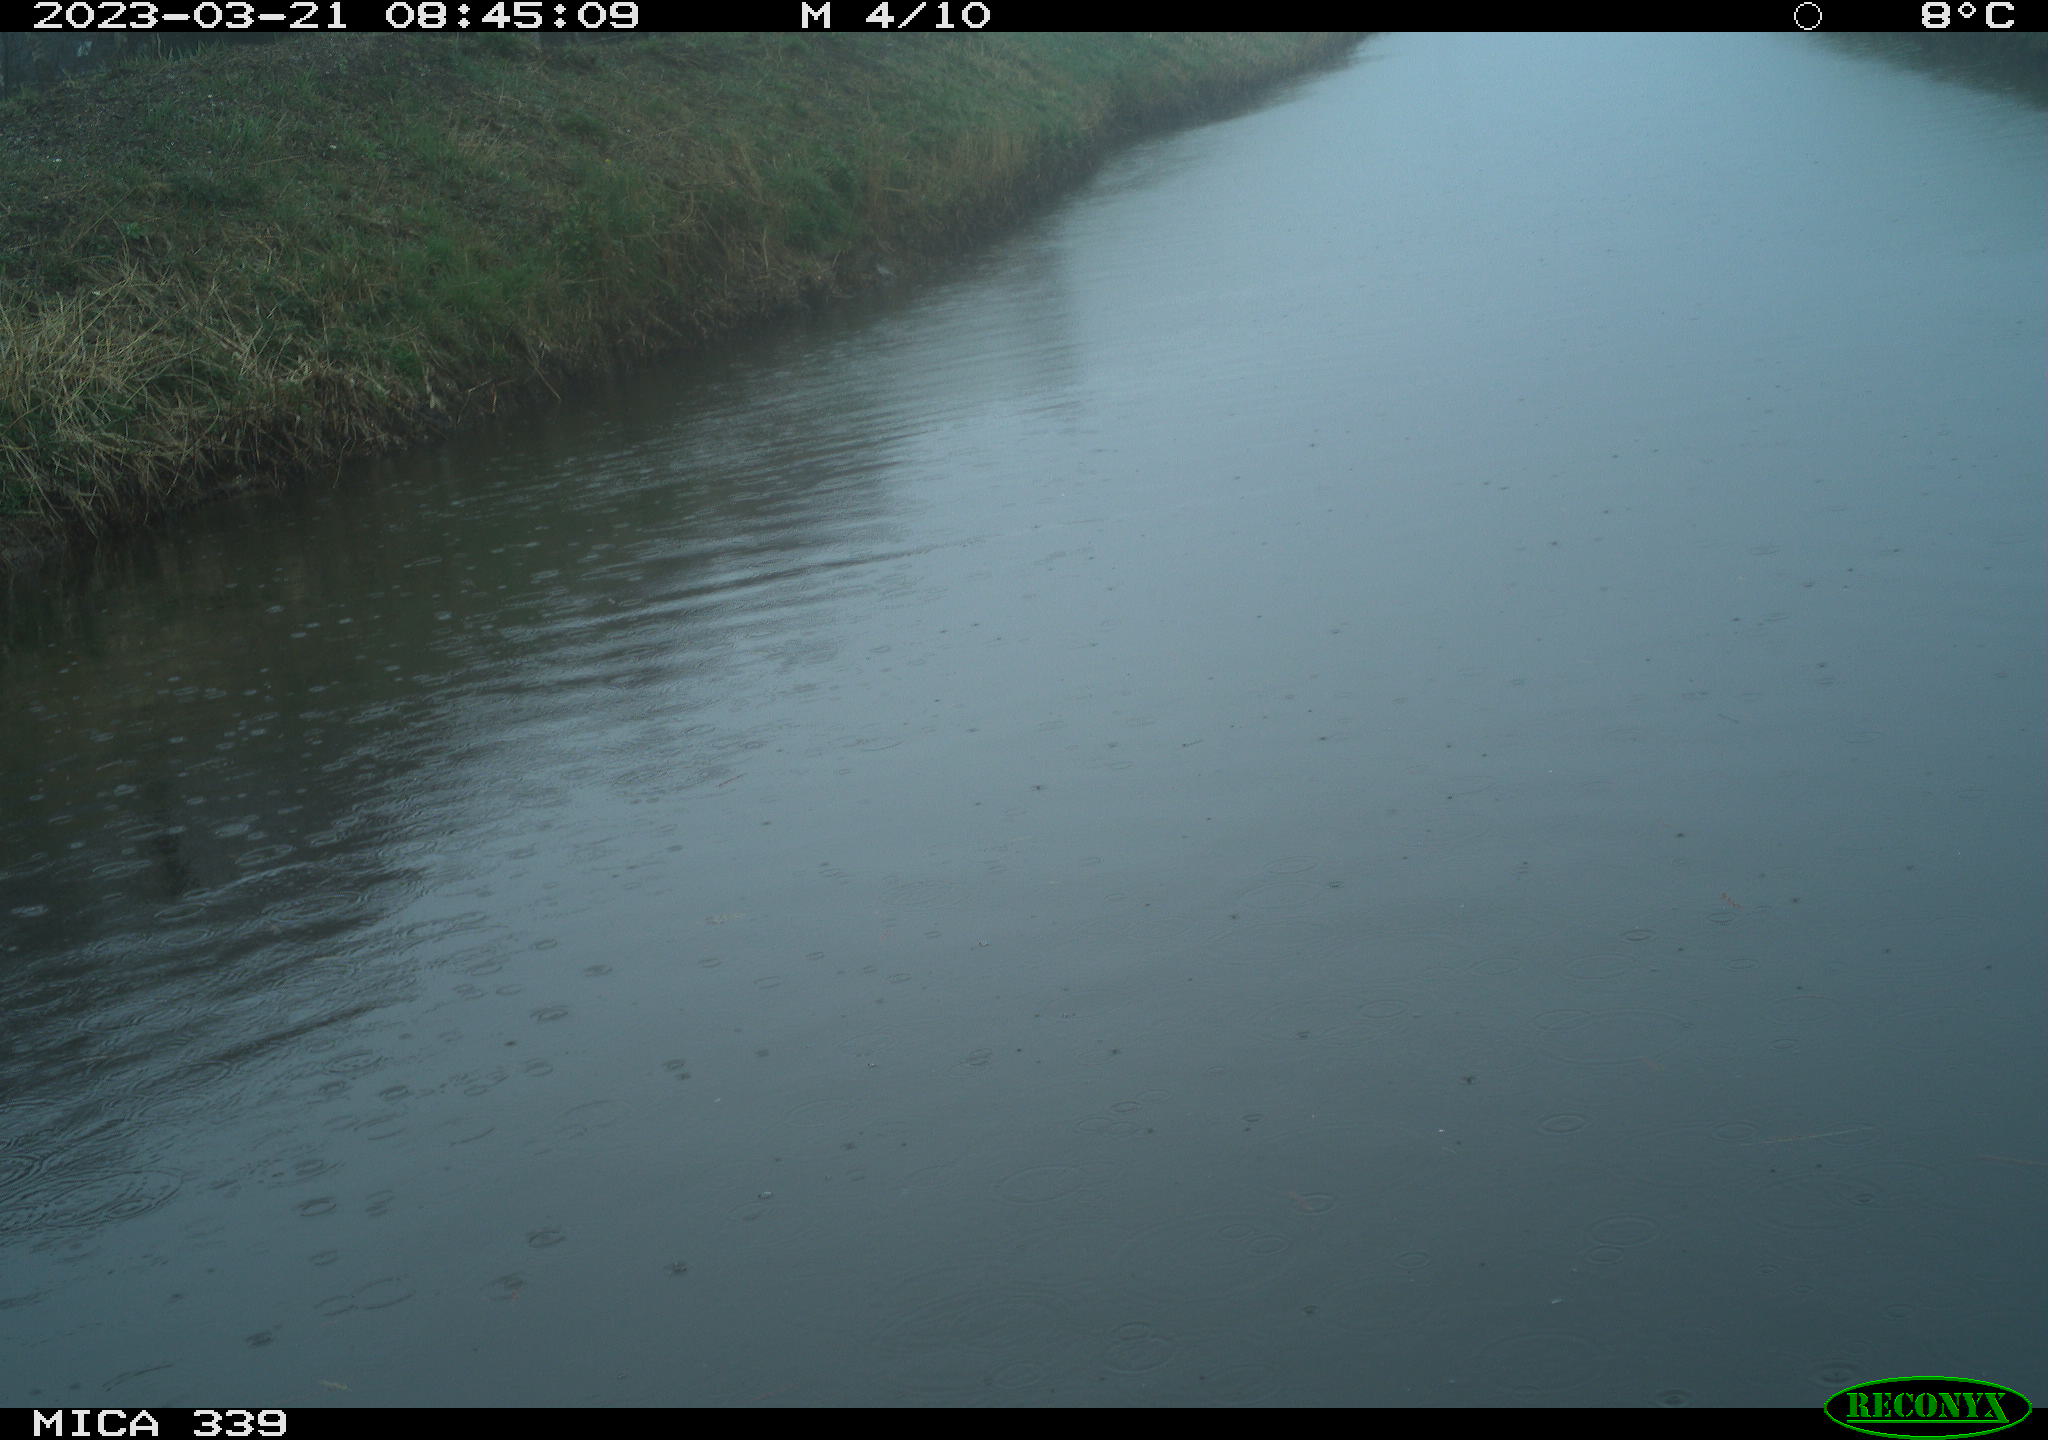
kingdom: Animalia
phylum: Chordata
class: Aves
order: Pelecaniformes
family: Ardeidae
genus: Ardea
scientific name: Ardea
